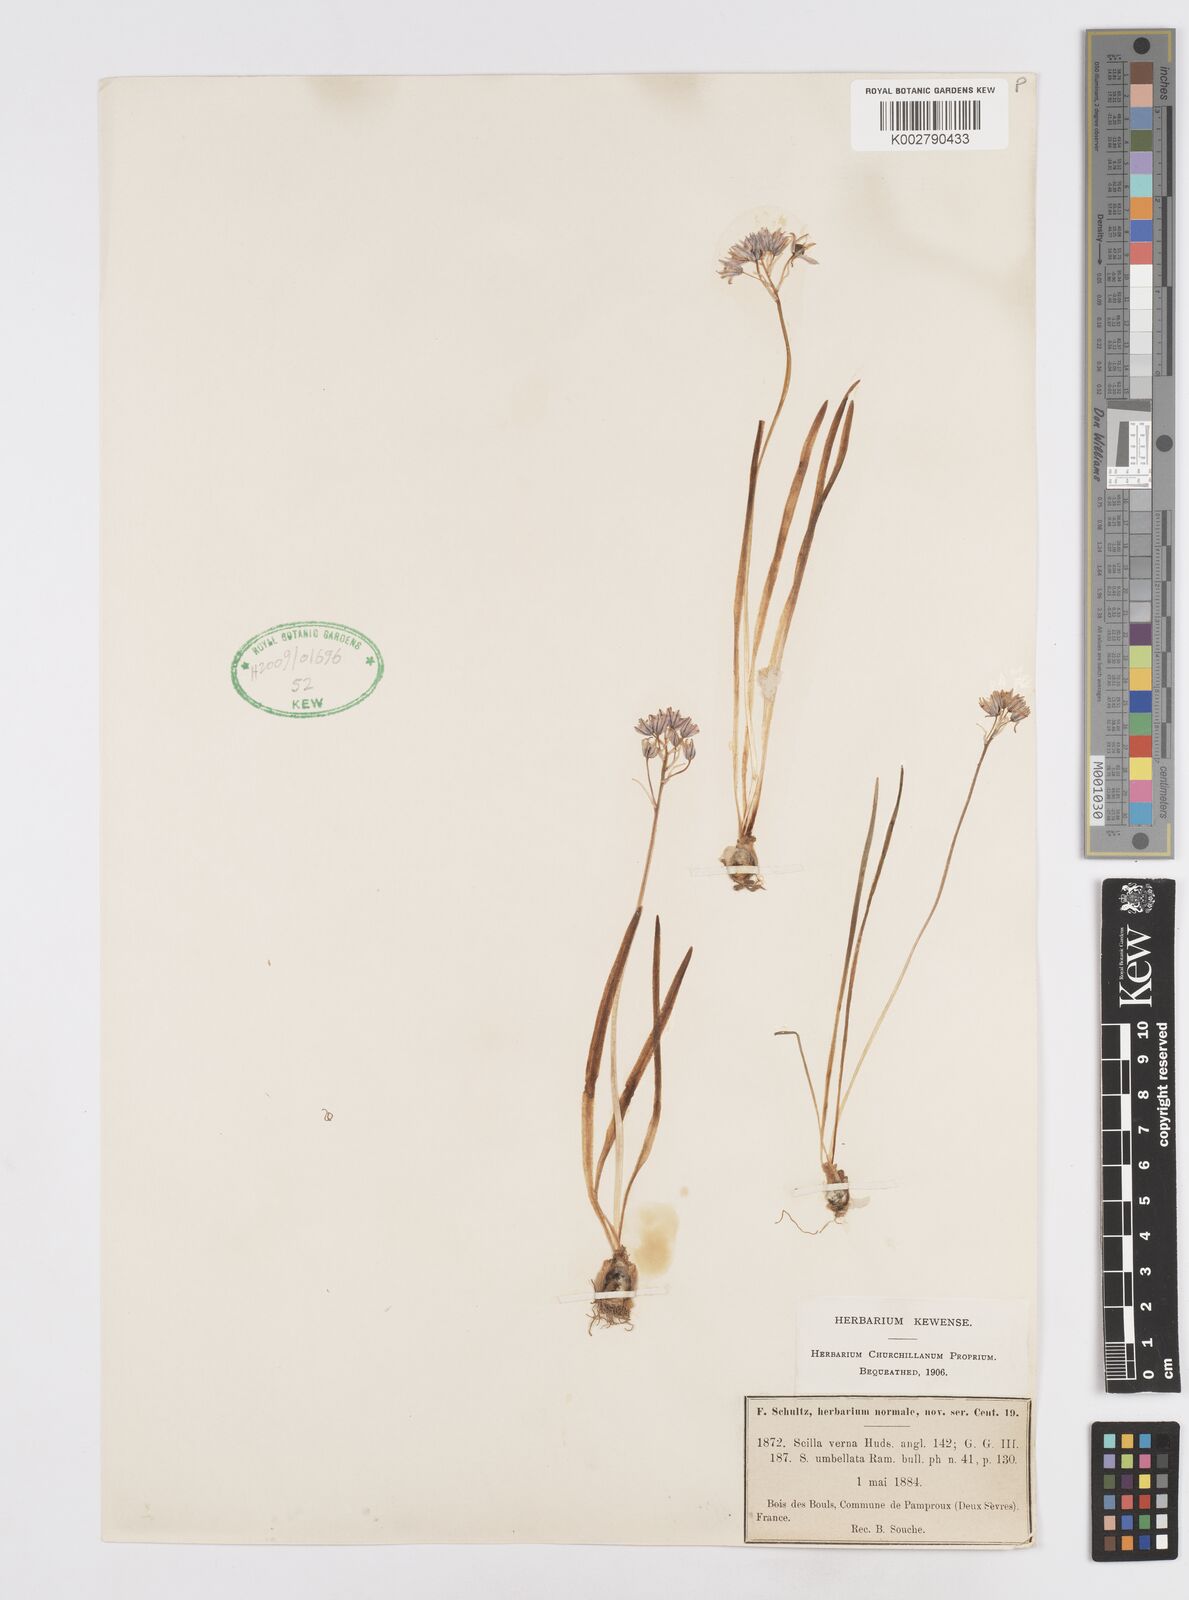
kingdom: Plantae
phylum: Tracheophyta
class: Liliopsida
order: Asparagales
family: Asparagaceae
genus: Scilla
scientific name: Scilla verna
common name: Spring squill
